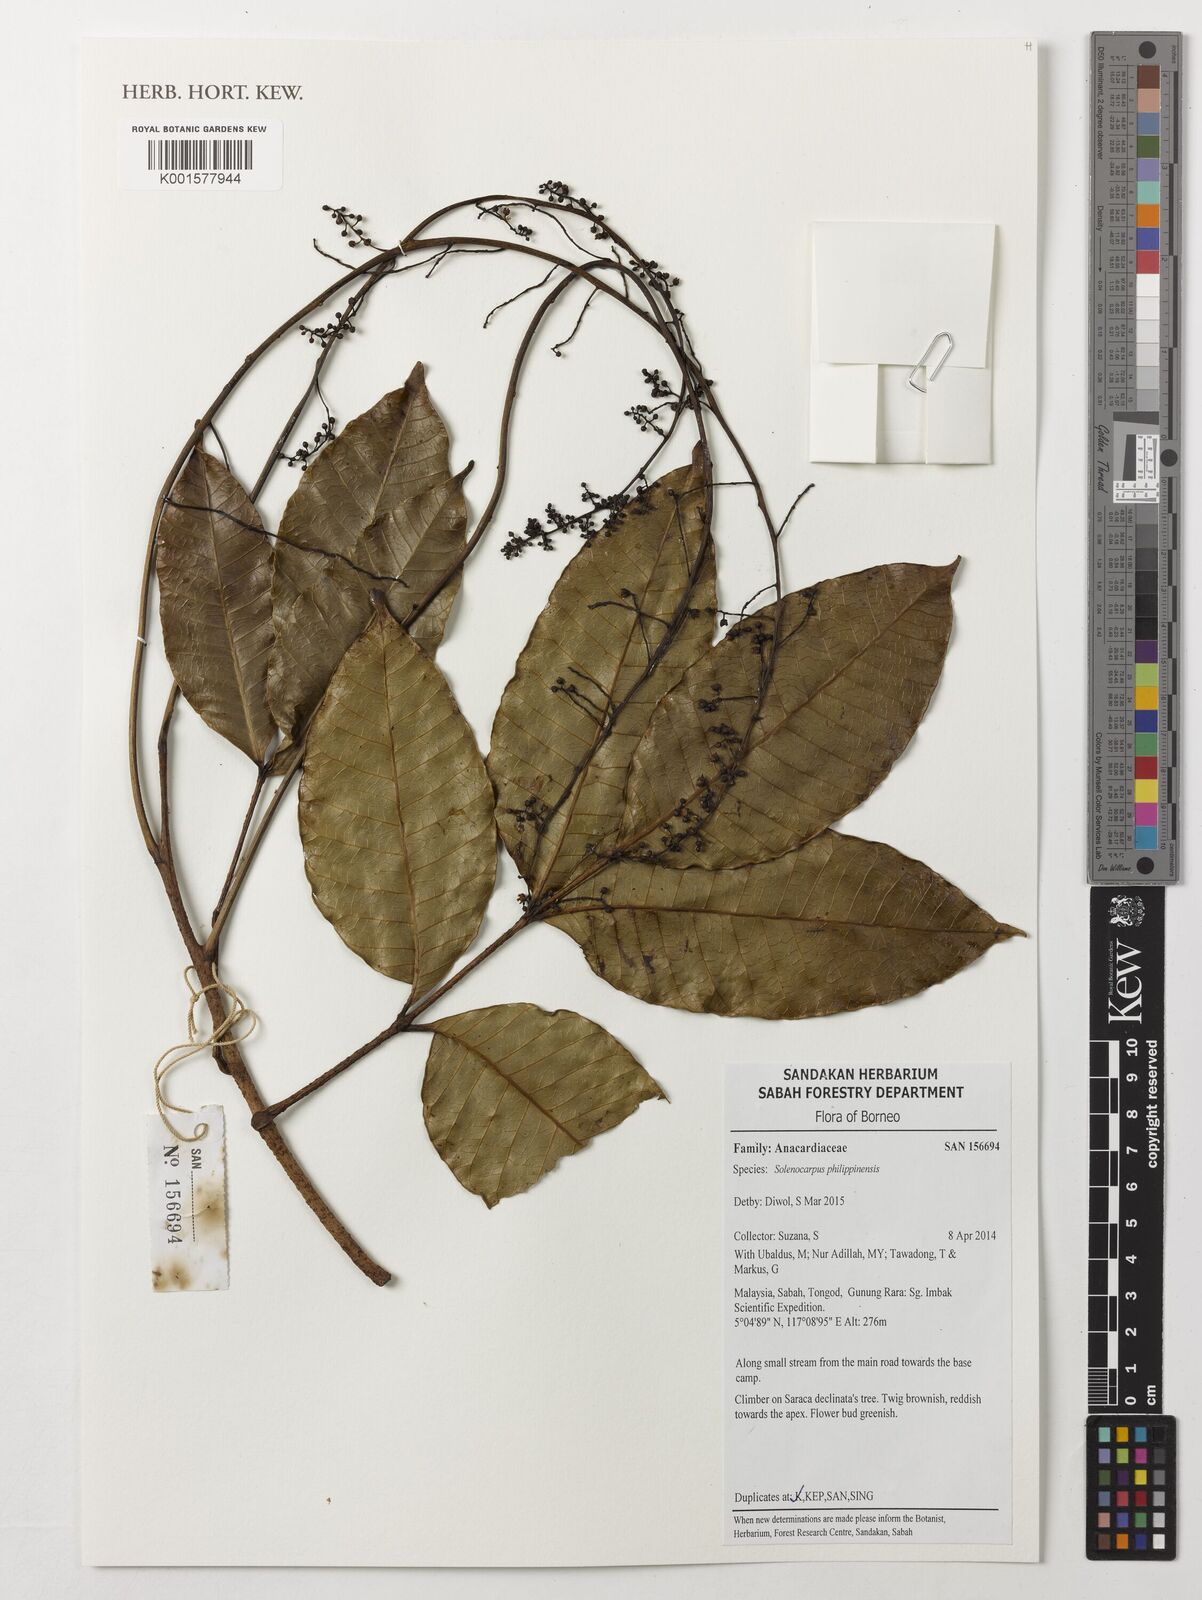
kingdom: Plantae
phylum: Tracheophyta
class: Magnoliopsida
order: Sapindales
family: Anacardiaceae
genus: Spondias
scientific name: Spondias philippinensis
